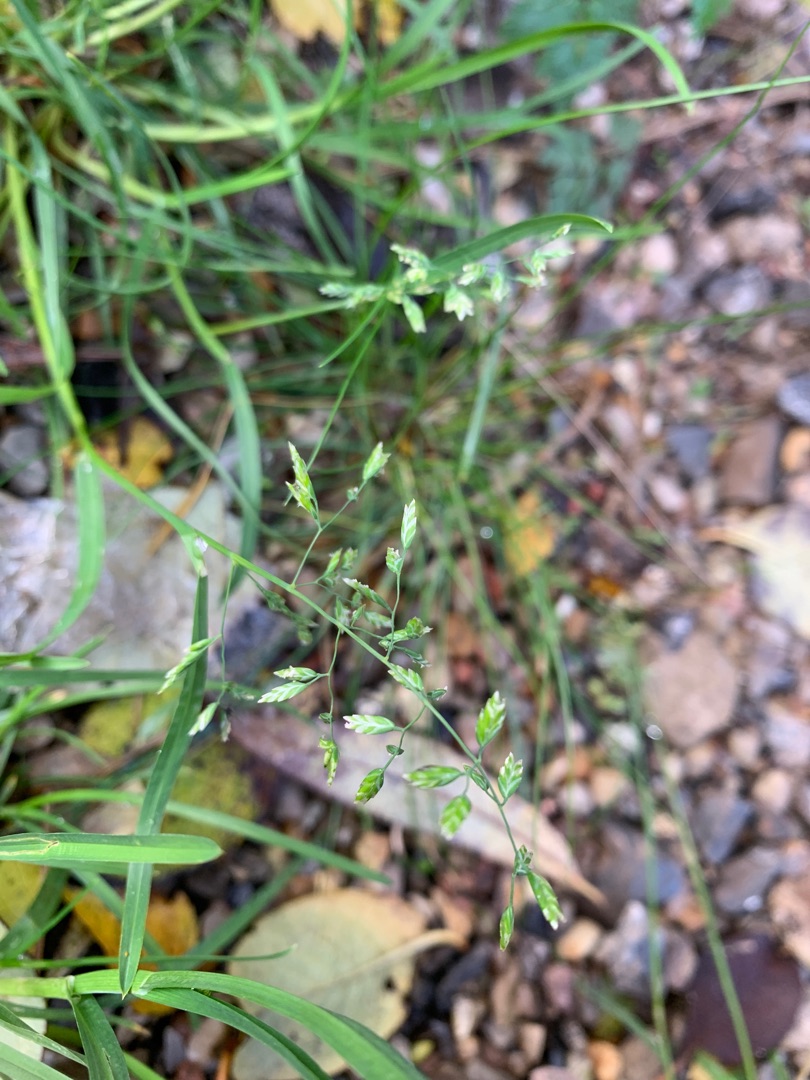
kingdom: Plantae
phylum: Tracheophyta
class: Liliopsida
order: Poales
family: Poaceae
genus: Poa
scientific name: Poa annua
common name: Enårig rapgræs
